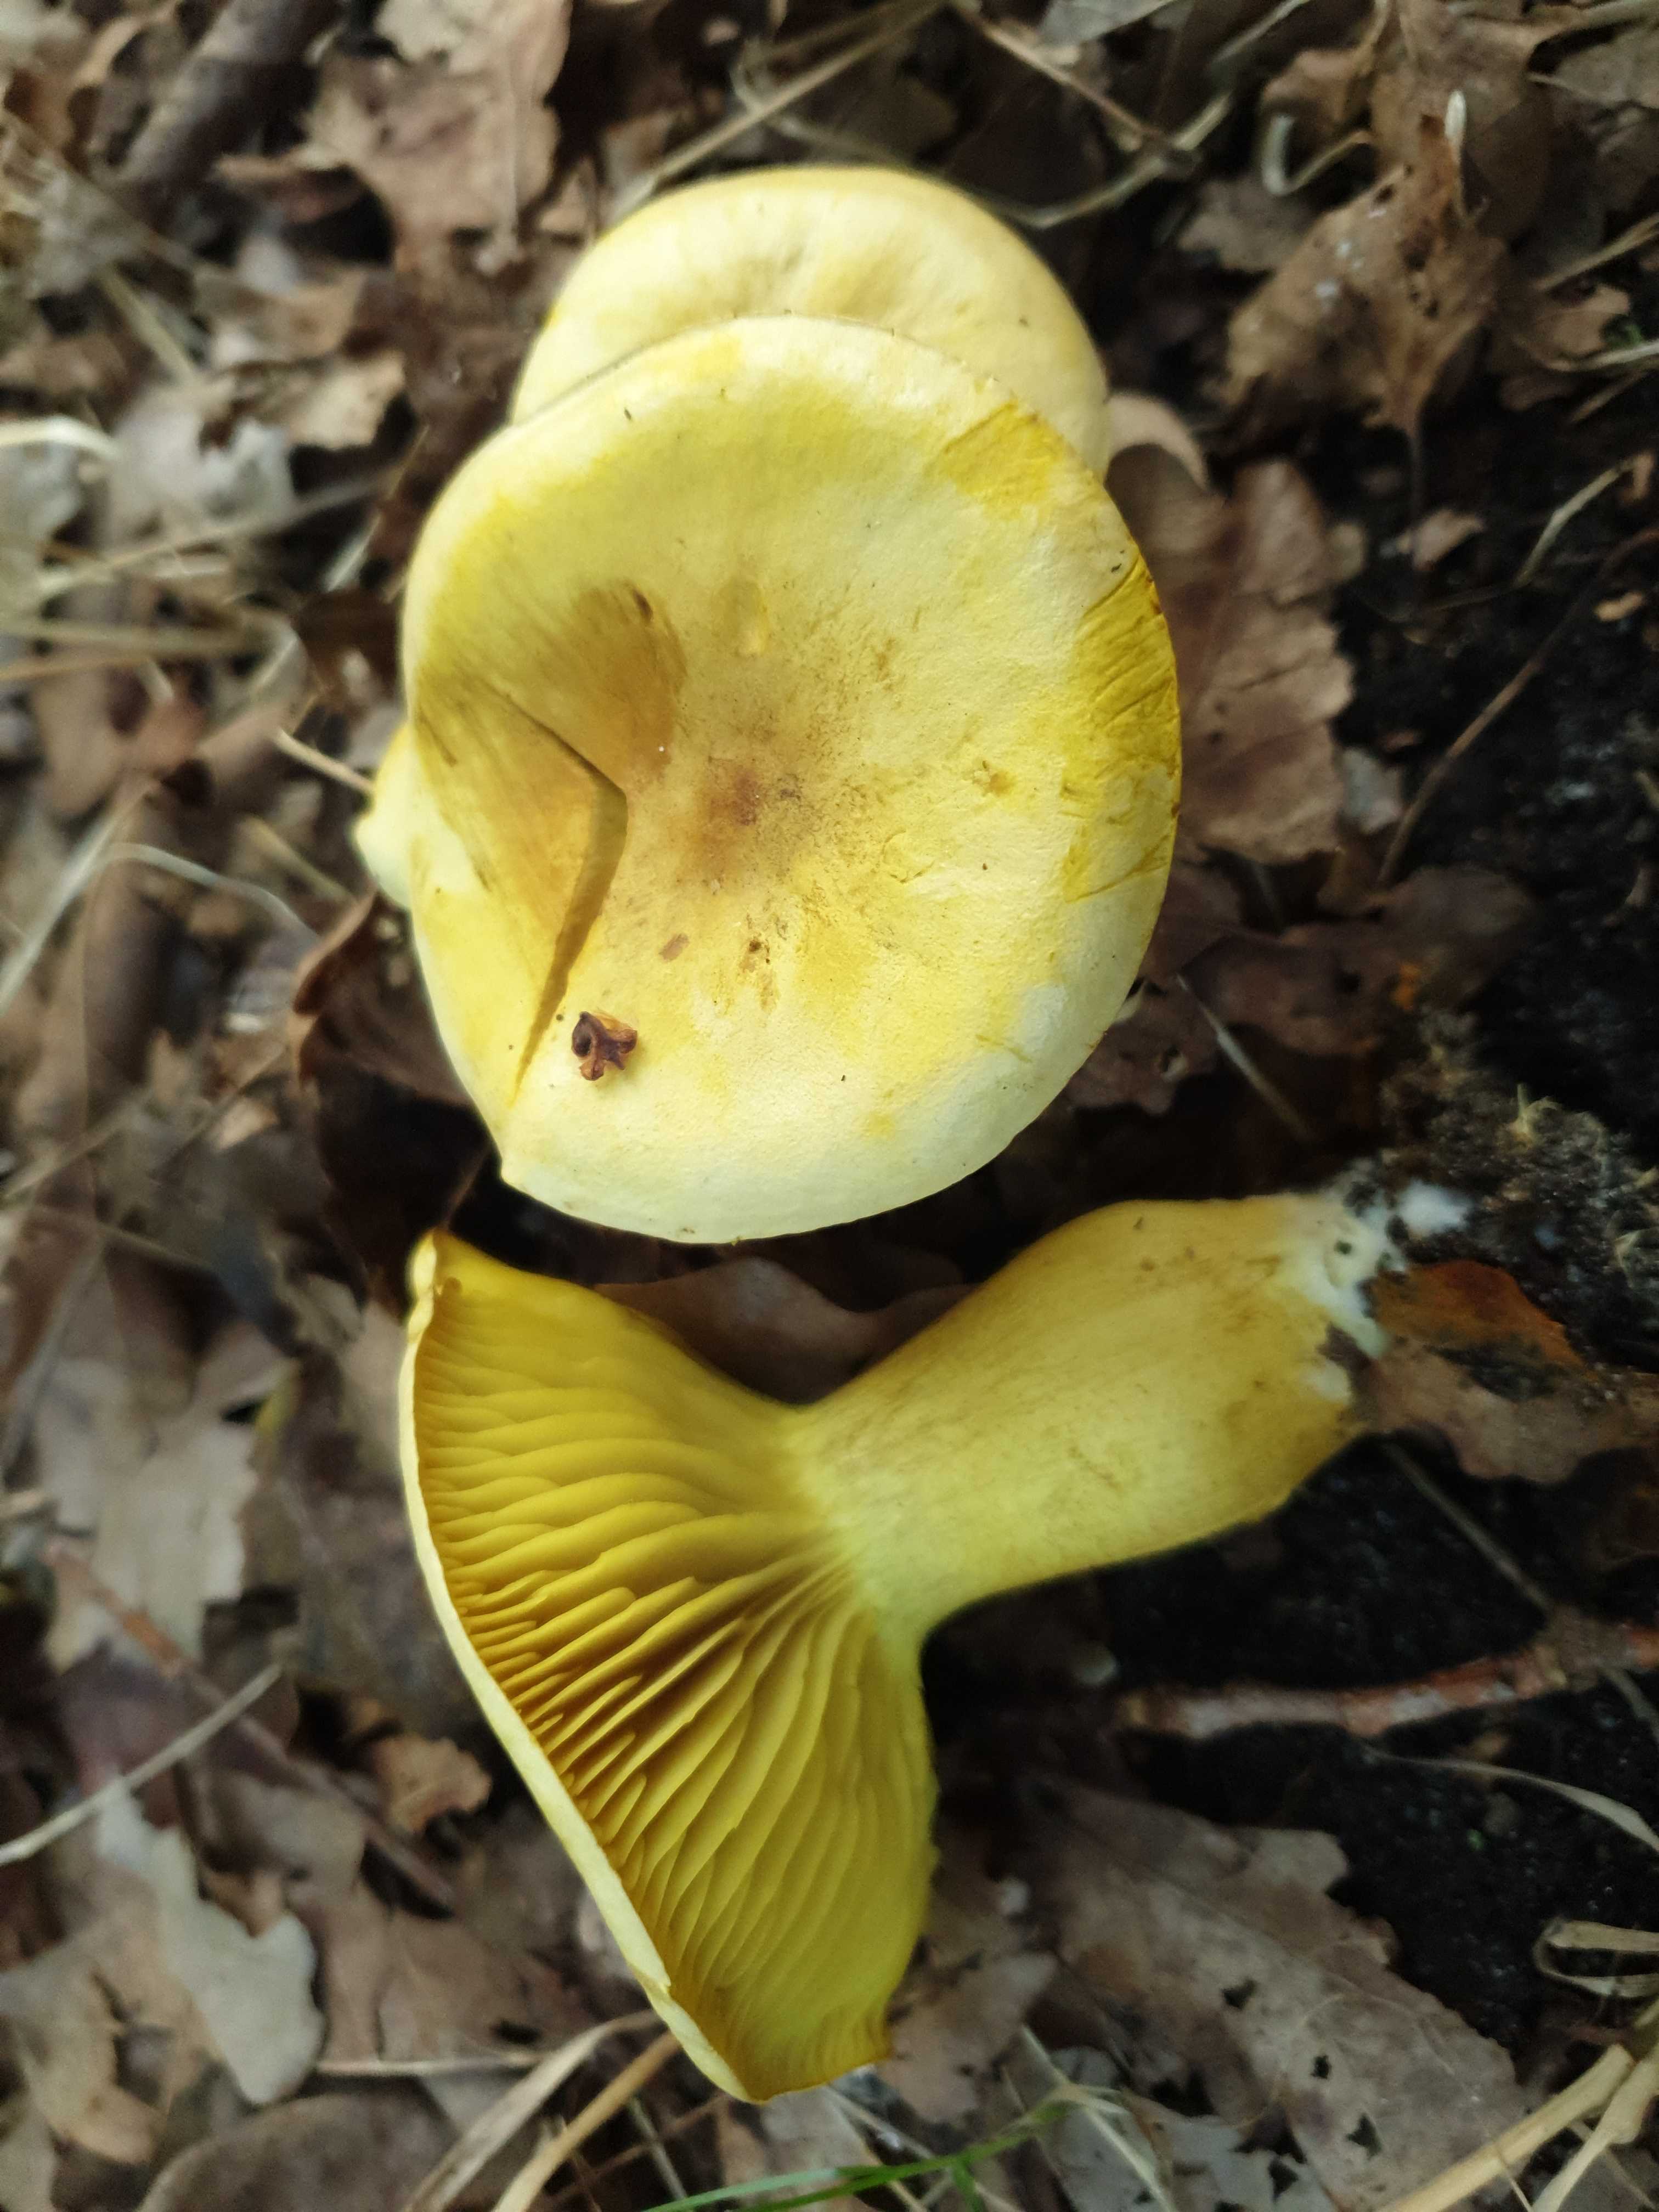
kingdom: Fungi
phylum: Basidiomycota
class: Agaricomycetes
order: Agaricales
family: Tricholomataceae
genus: Tricholoma
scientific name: Tricholoma sulphureum
